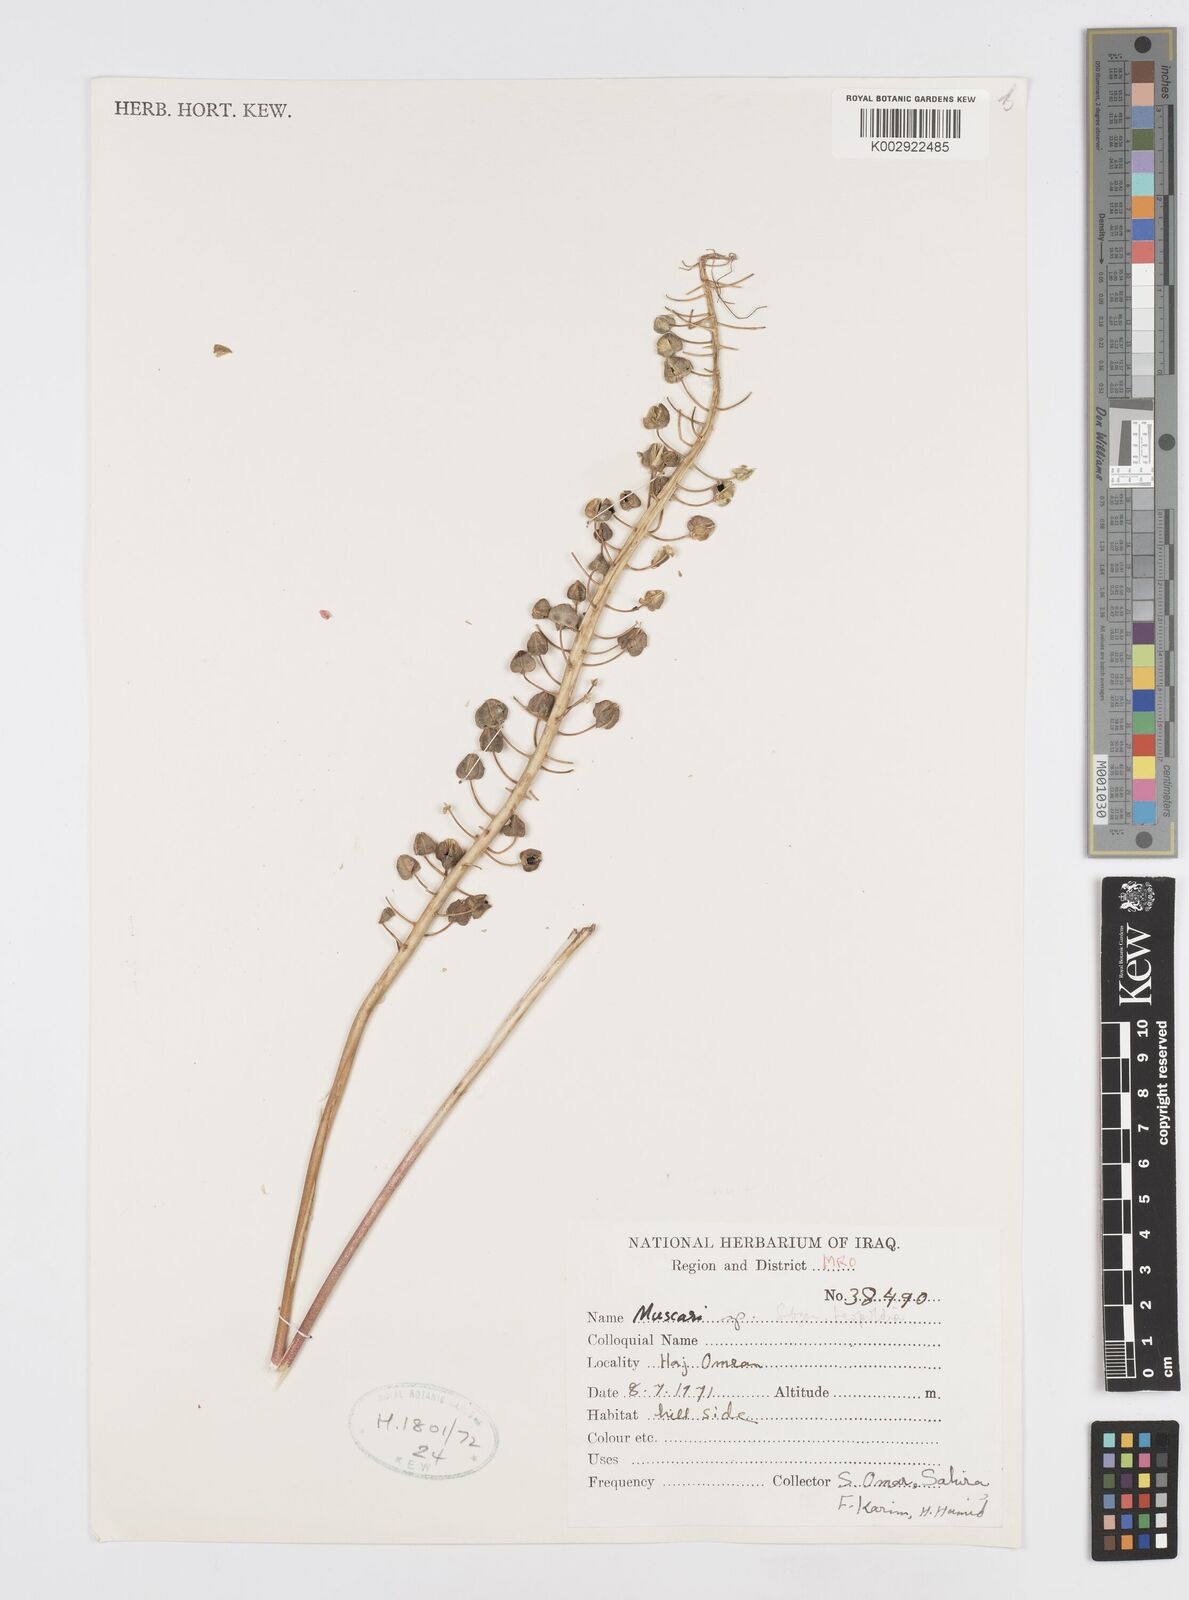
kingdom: Animalia
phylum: Mollusca
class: Cephalopoda
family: Neocomitidae
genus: Leopoldia
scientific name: Leopoldia
